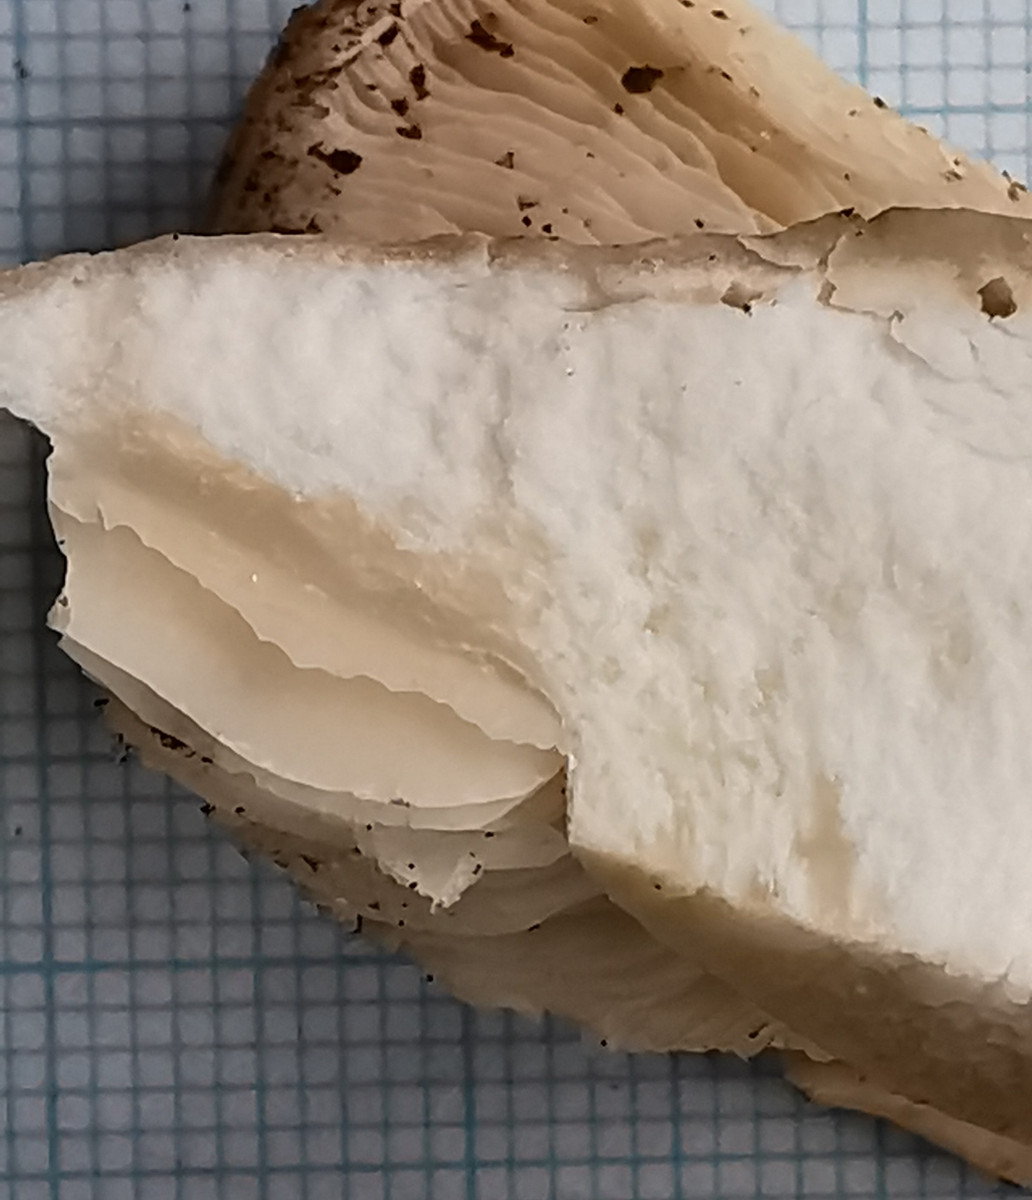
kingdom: Fungi
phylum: Basidiomycota
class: Agaricomycetes
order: Agaricales
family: Lyophyllaceae
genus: Calocybe
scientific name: Calocybe gambosa
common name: vårmusseron
